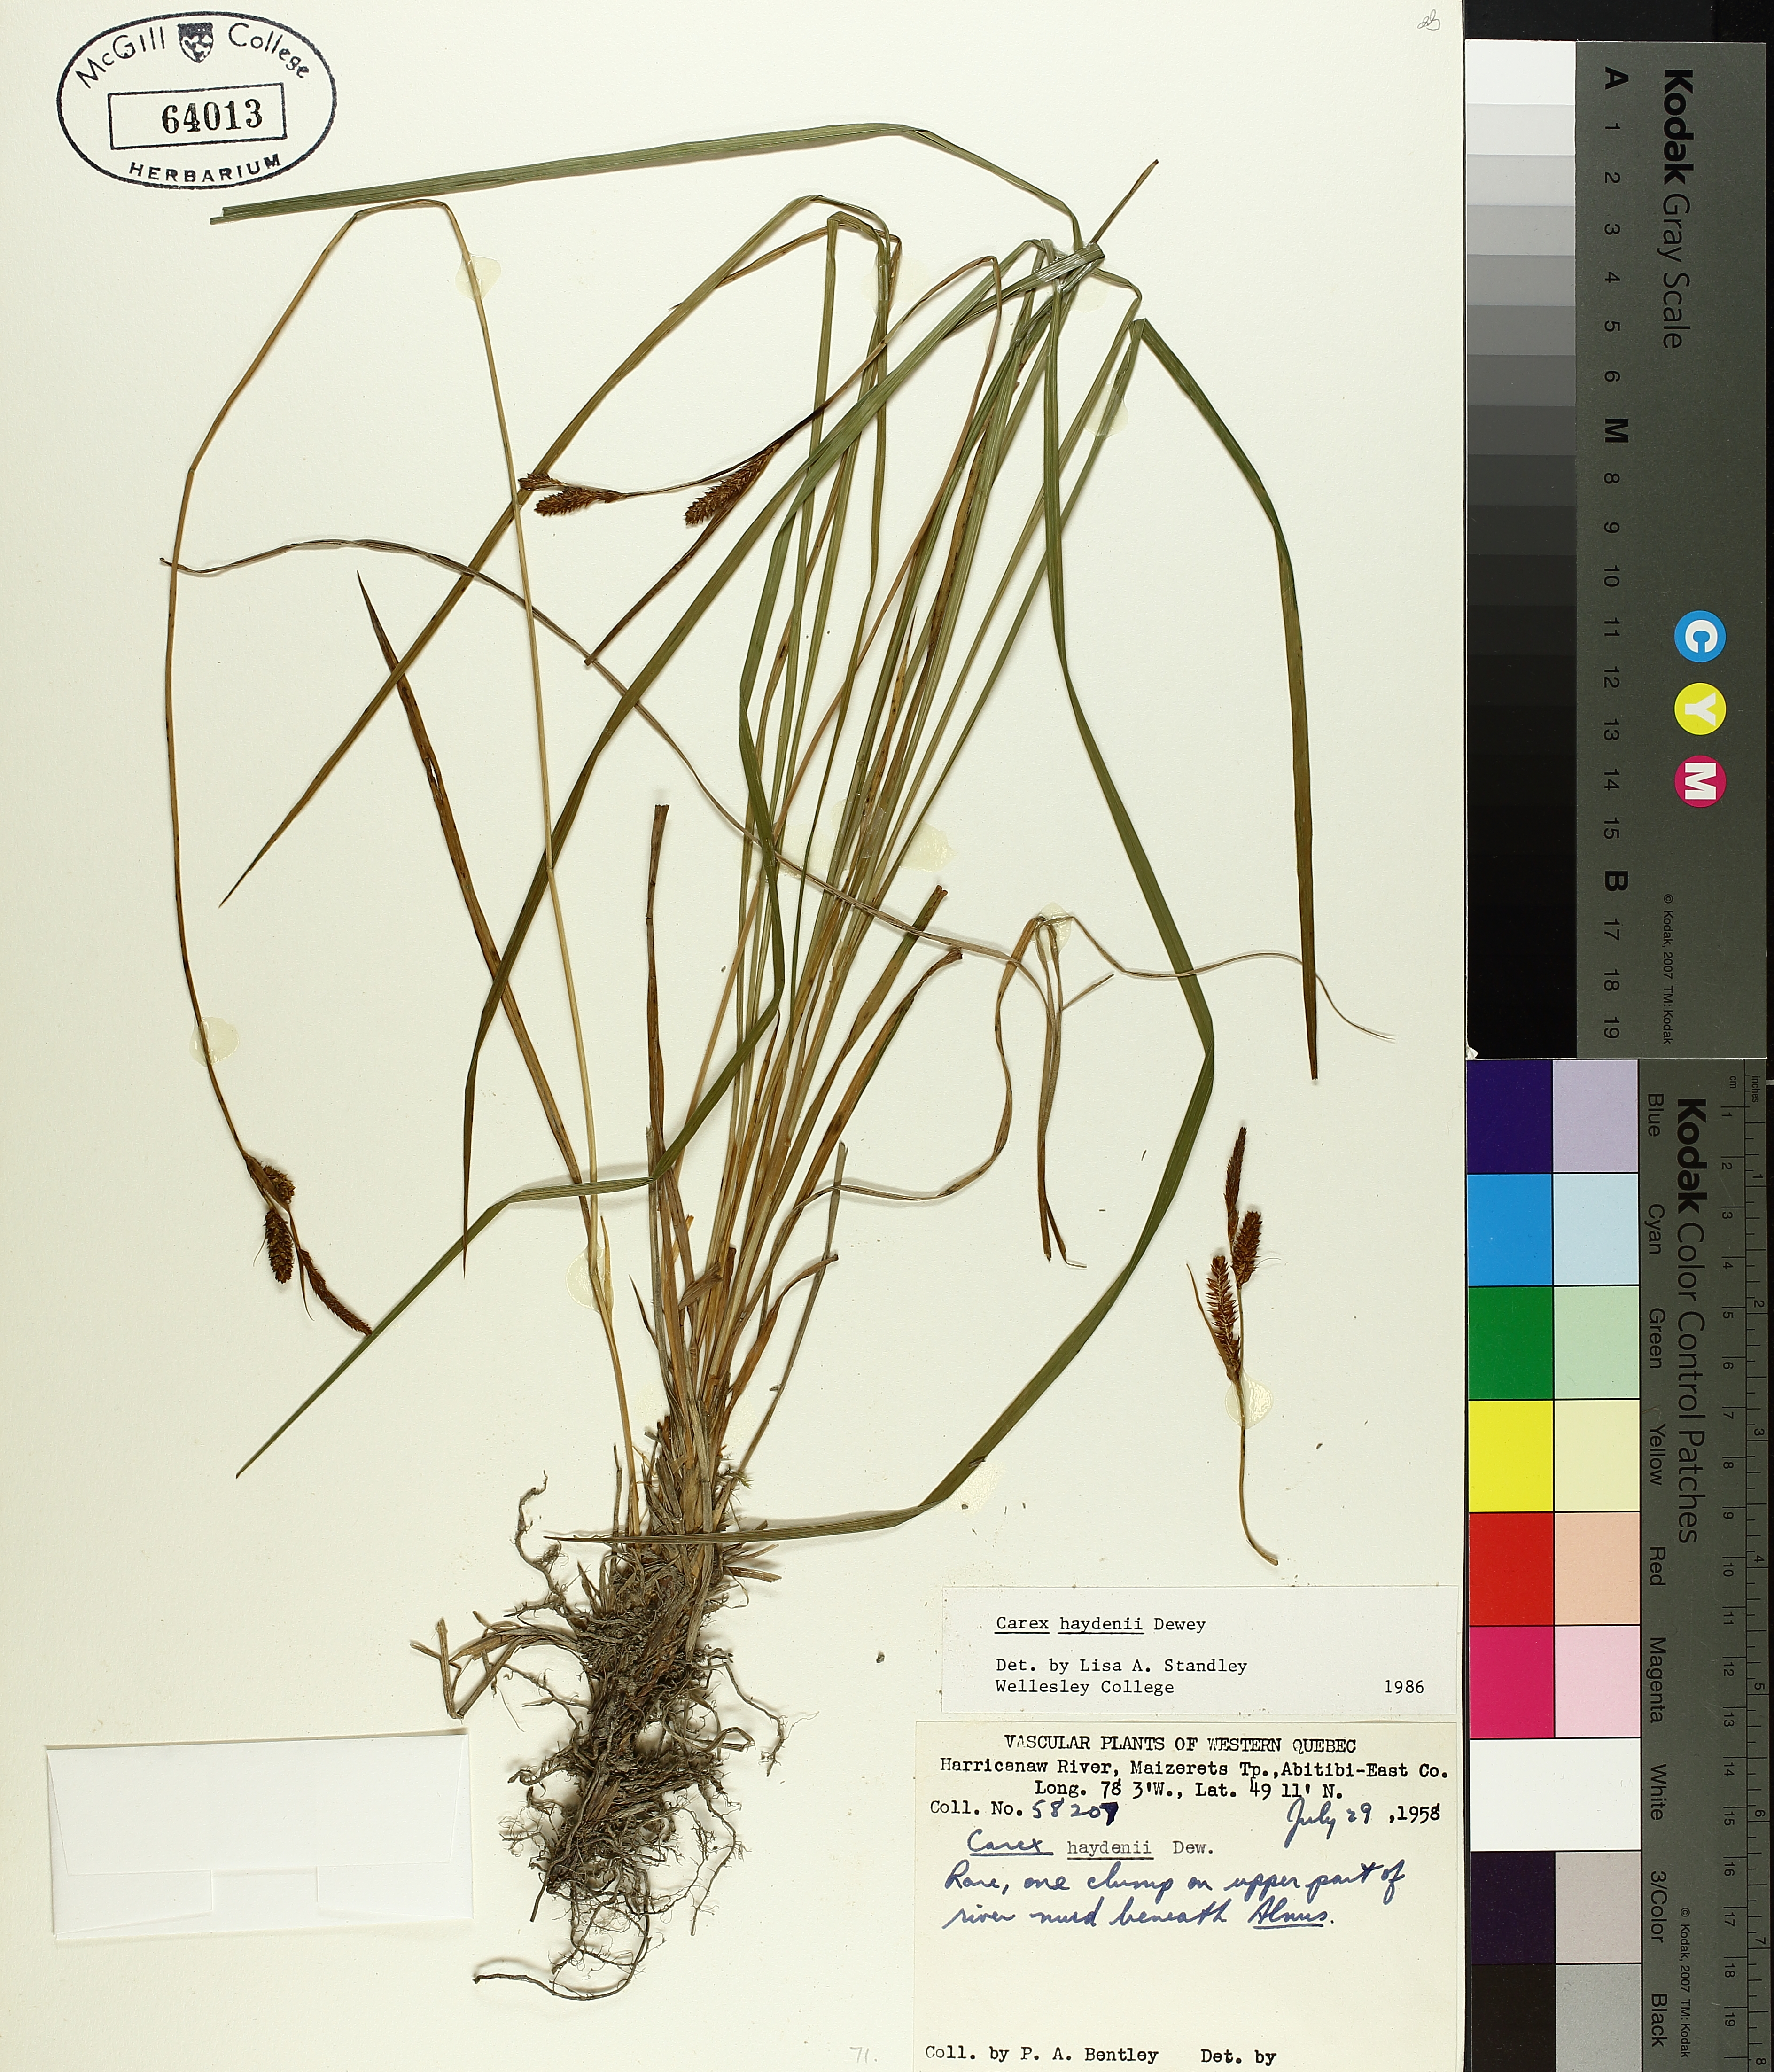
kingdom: Plantae
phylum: Tracheophyta
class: Liliopsida
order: Poales
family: Cyperaceae
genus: Carex
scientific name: Carex haydenii
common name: Hayden's sedge
